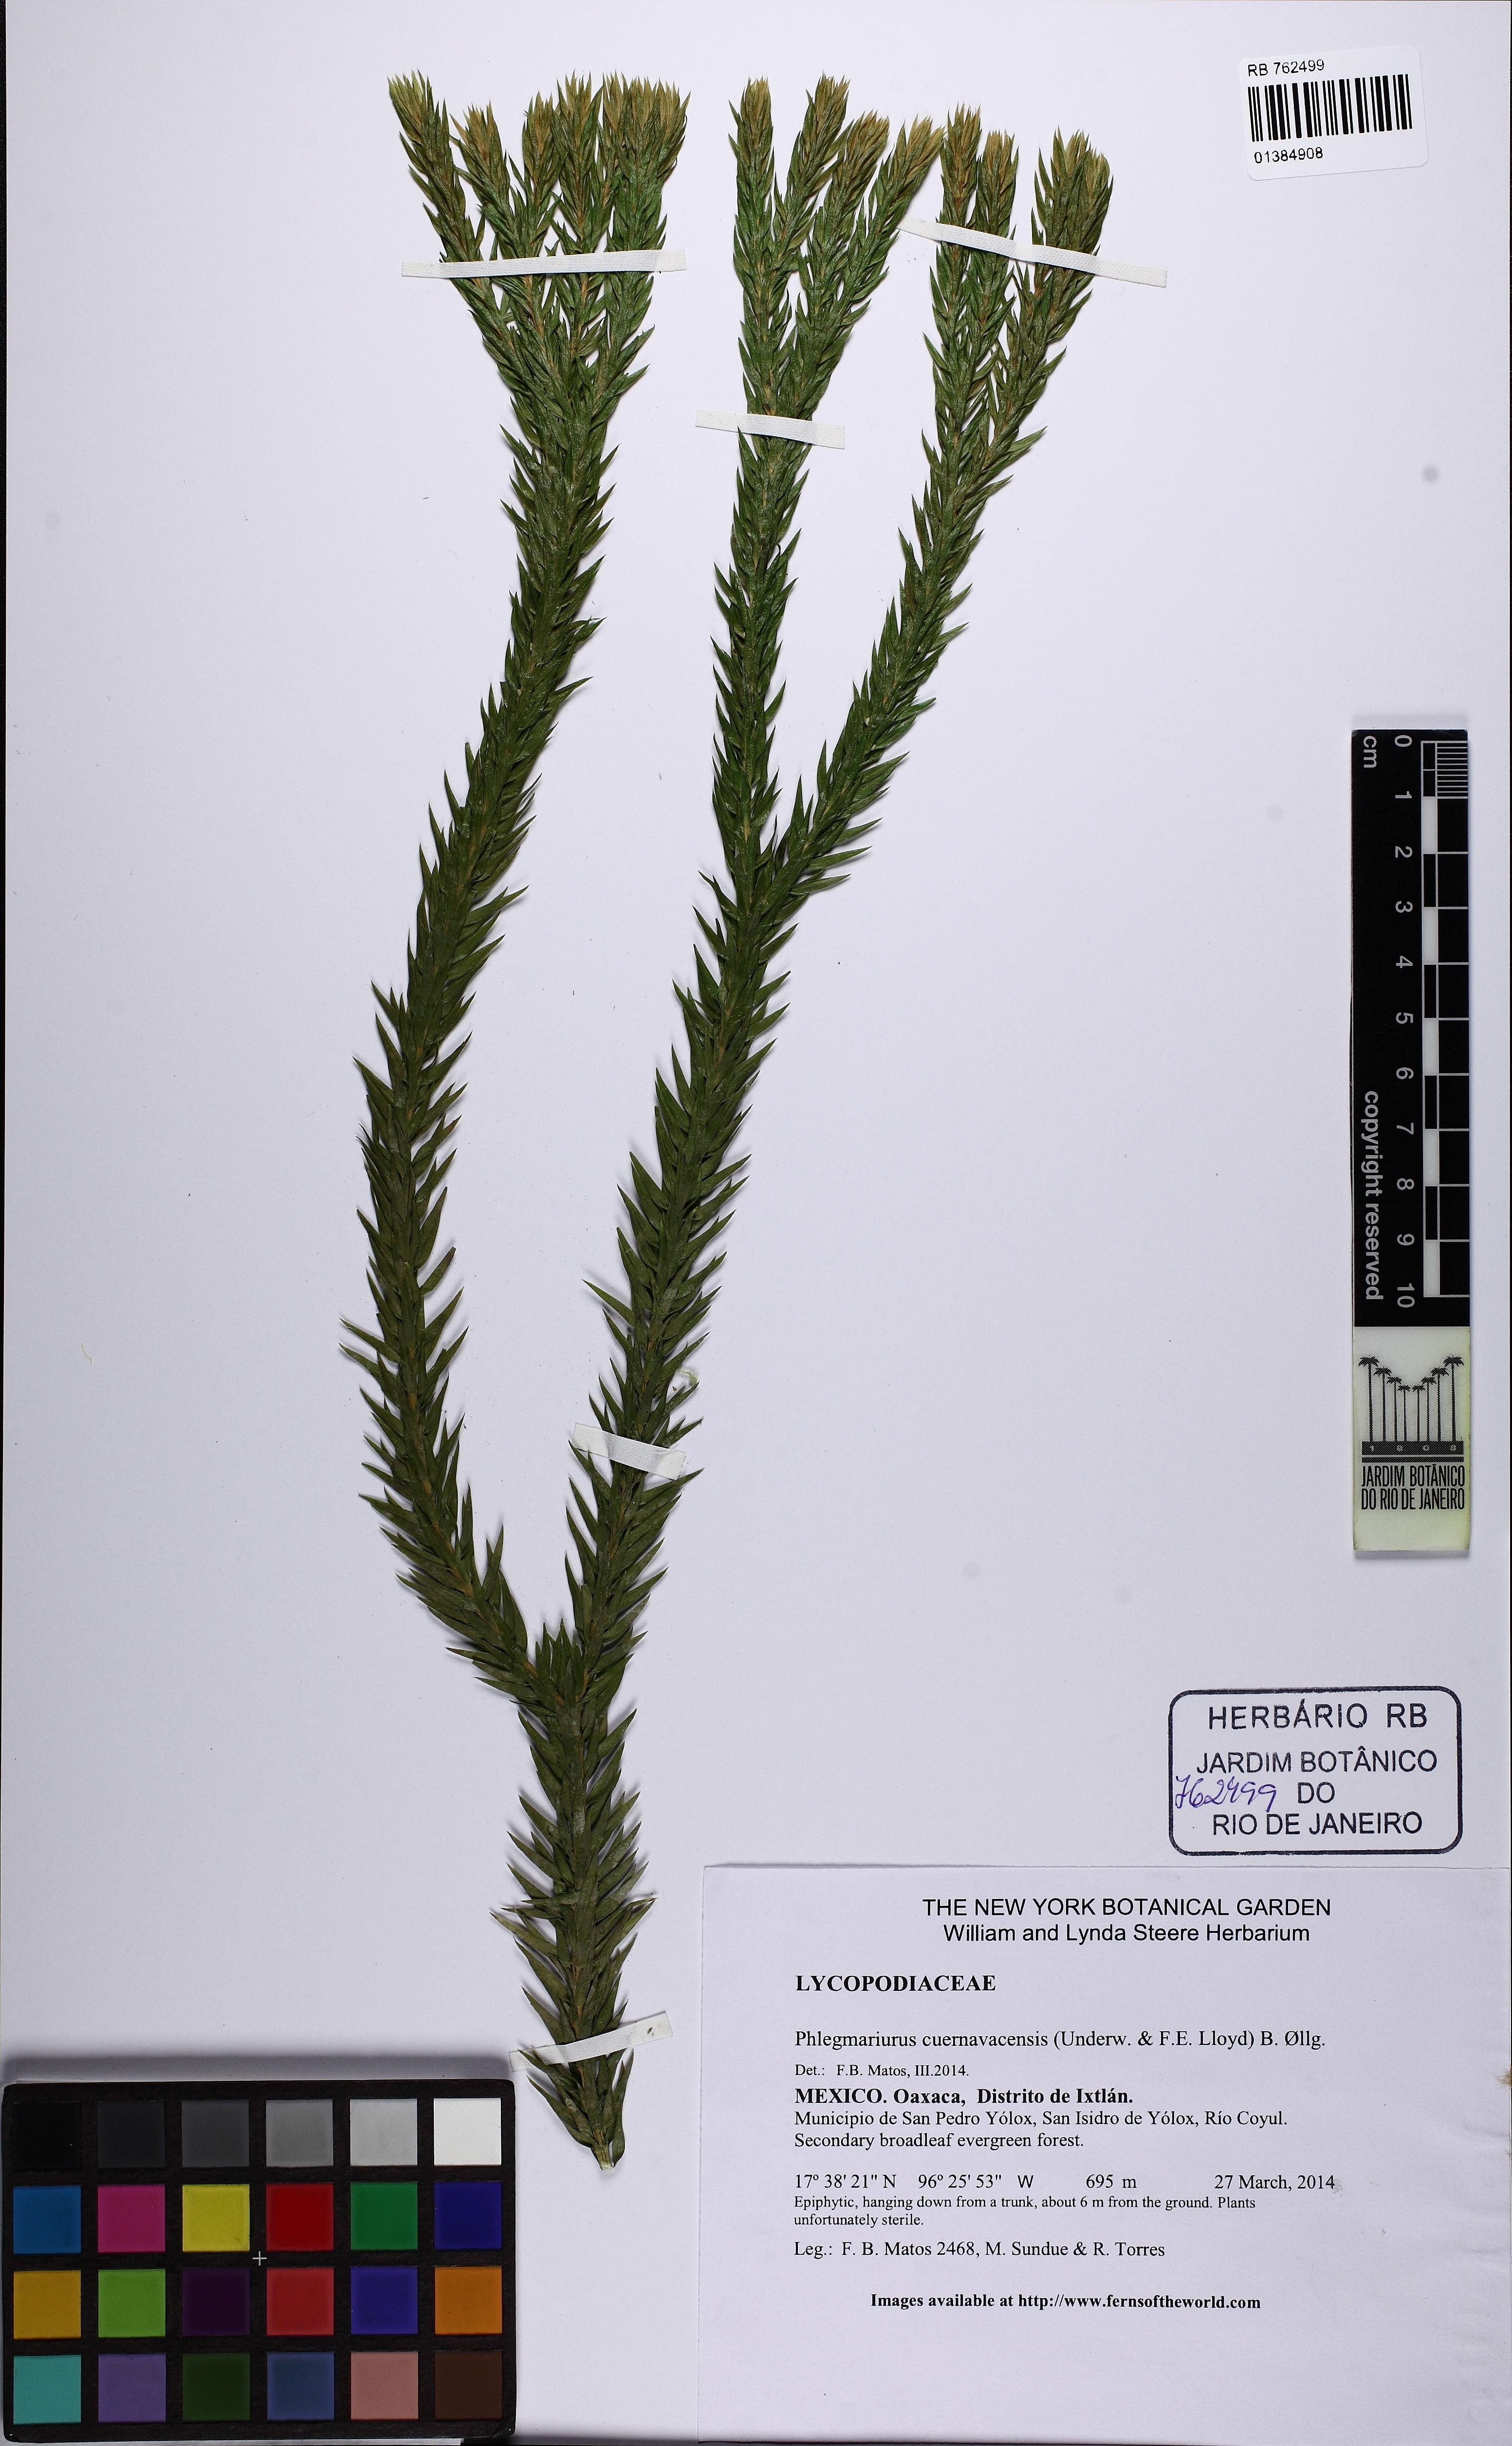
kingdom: Plantae
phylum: Tracheophyta
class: Lycopodiopsida
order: Lycopodiales
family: Lycopodiaceae
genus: Phlegmariurus
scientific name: Phlegmariurus cuernavacensis
